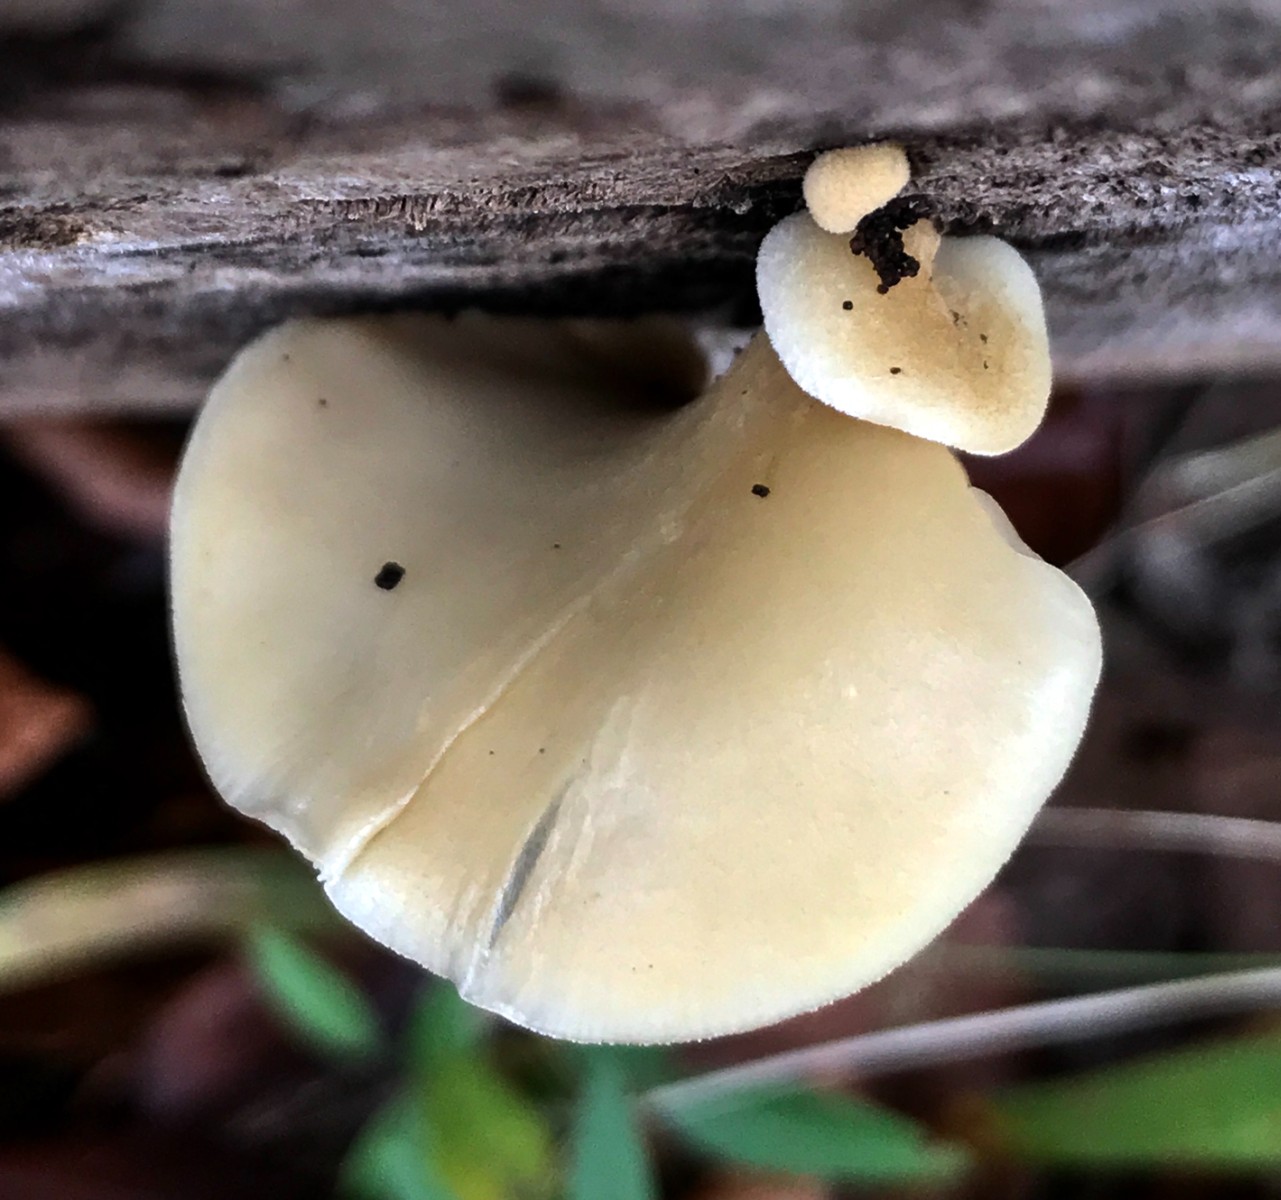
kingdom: Fungi
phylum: Basidiomycota
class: Agaricomycetes
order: Agaricales
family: Crepidotaceae
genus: Crepidotus
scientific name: Crepidotus mollis
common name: blød muslingesvamp
